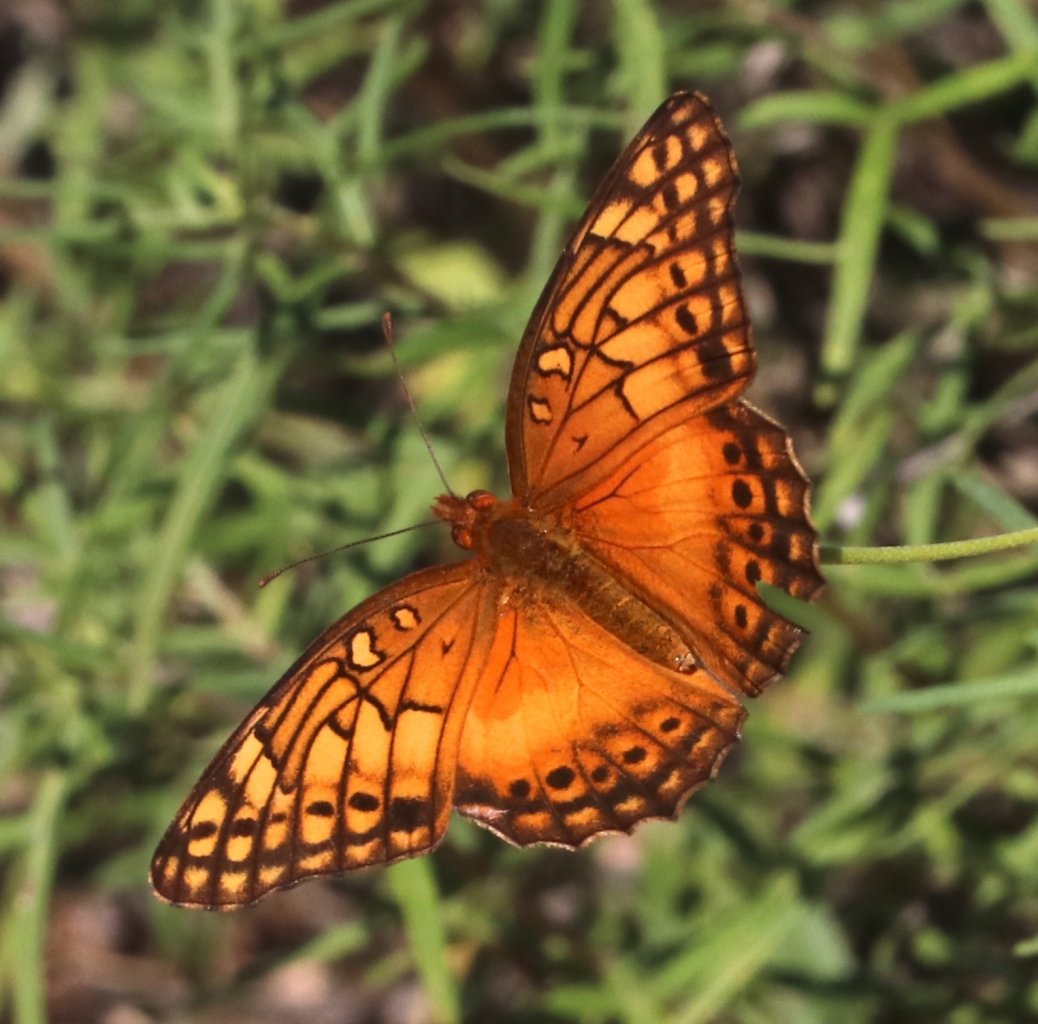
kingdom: Animalia
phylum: Arthropoda
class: Insecta
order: Lepidoptera
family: Nymphalidae
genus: Euptoieta
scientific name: Euptoieta hegesia
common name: Mexican Fritillary
